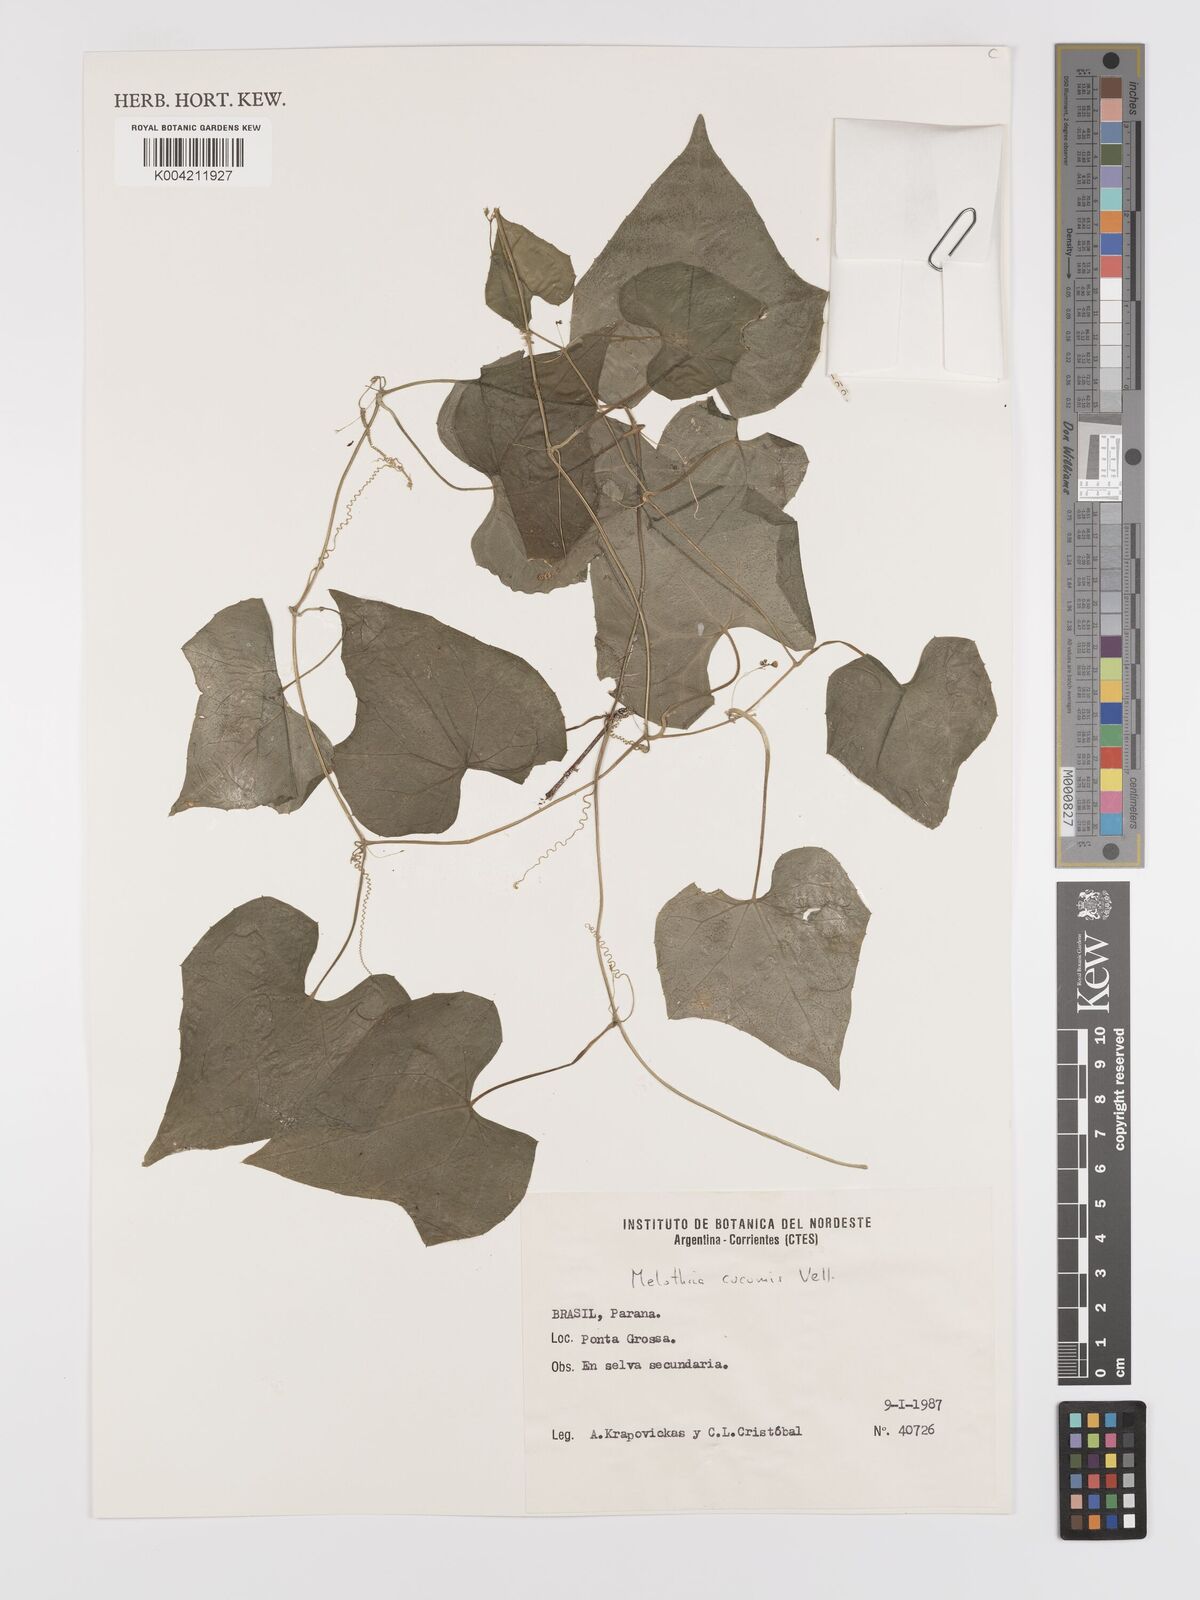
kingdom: Plantae
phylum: Tracheophyta
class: Magnoliopsida
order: Cucurbitales
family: Cucurbitaceae
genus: Melothria
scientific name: Melothria cucumis
